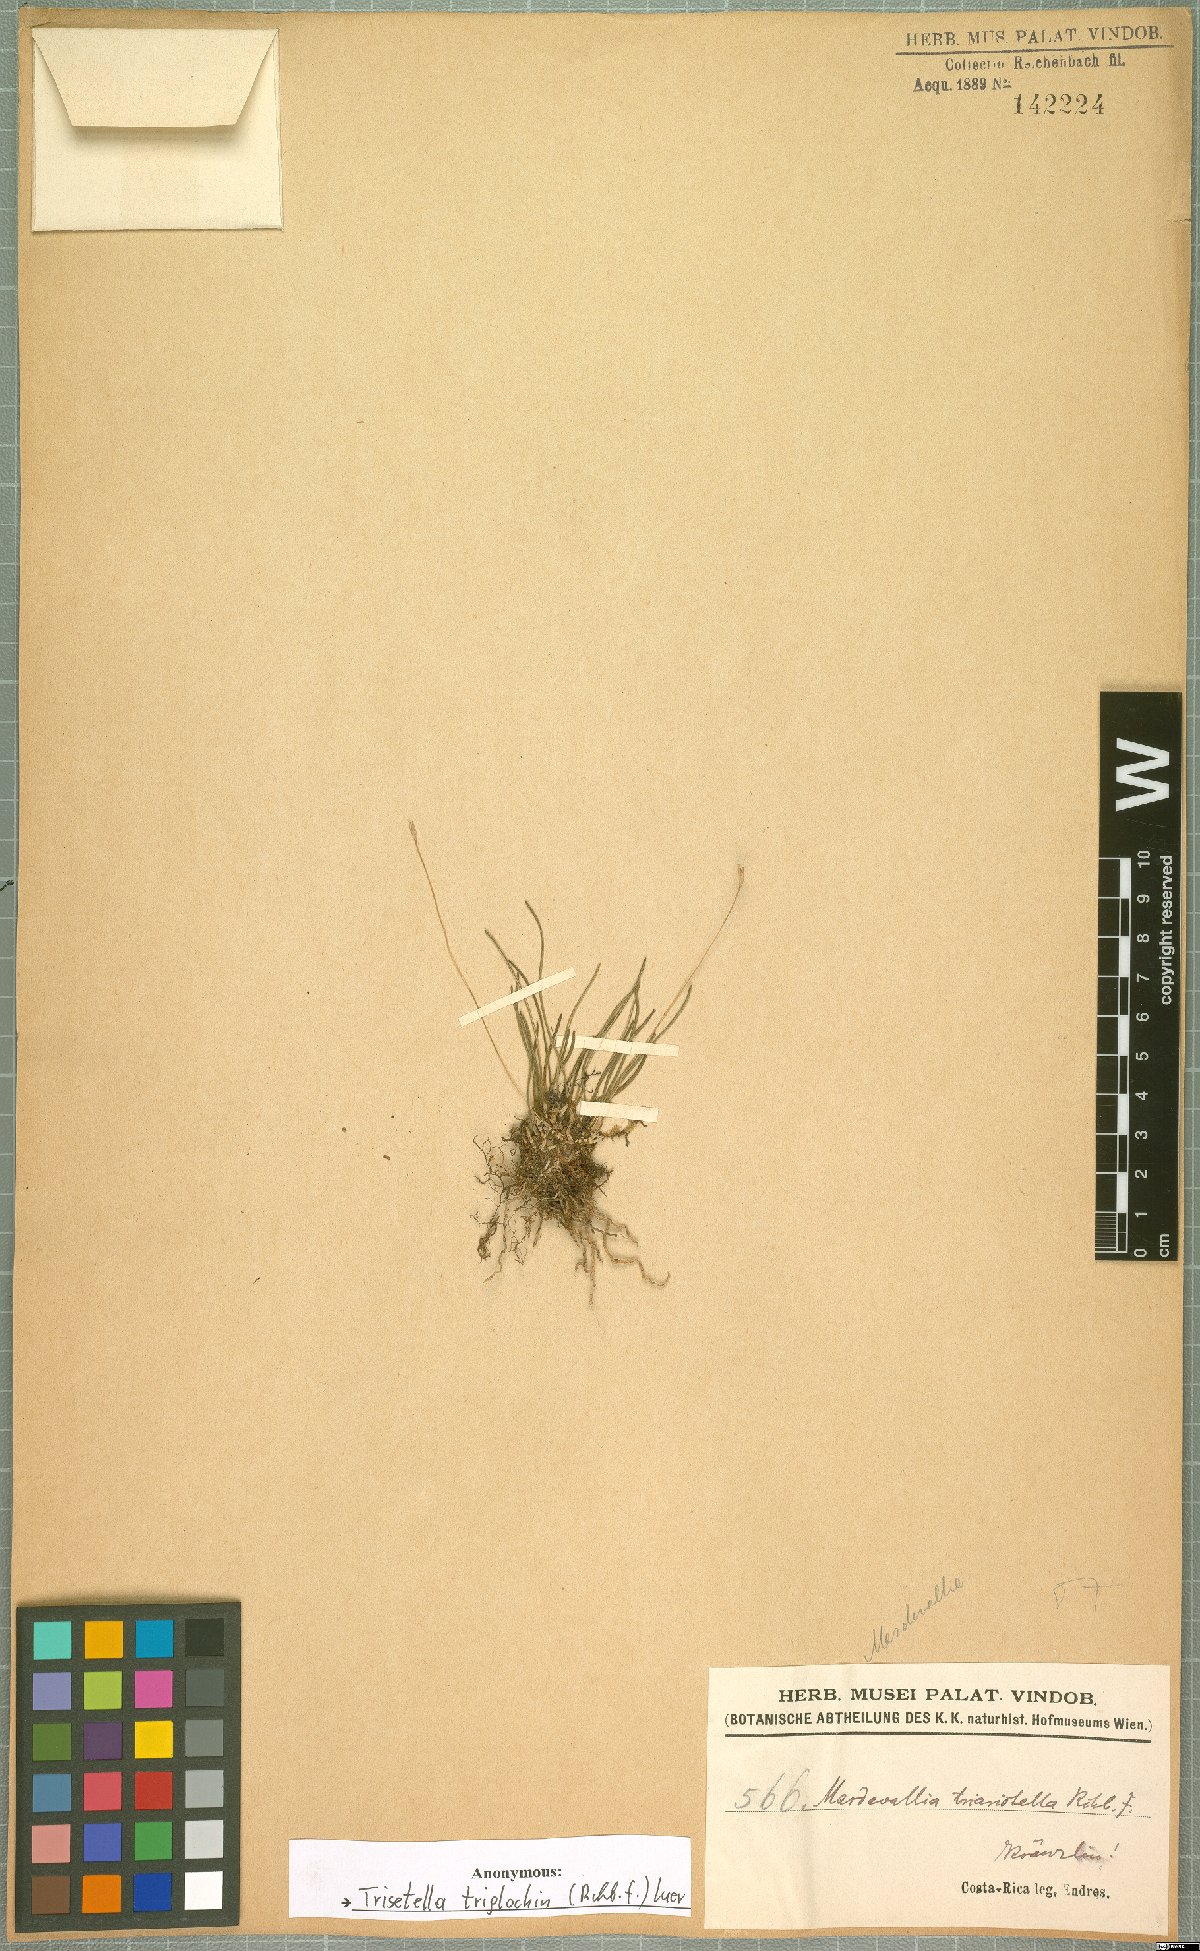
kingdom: Plantae
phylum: Tracheophyta
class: Liliopsida
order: Asparagales
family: Orchidaceae
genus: Trisetella
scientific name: Trisetella triglochin
